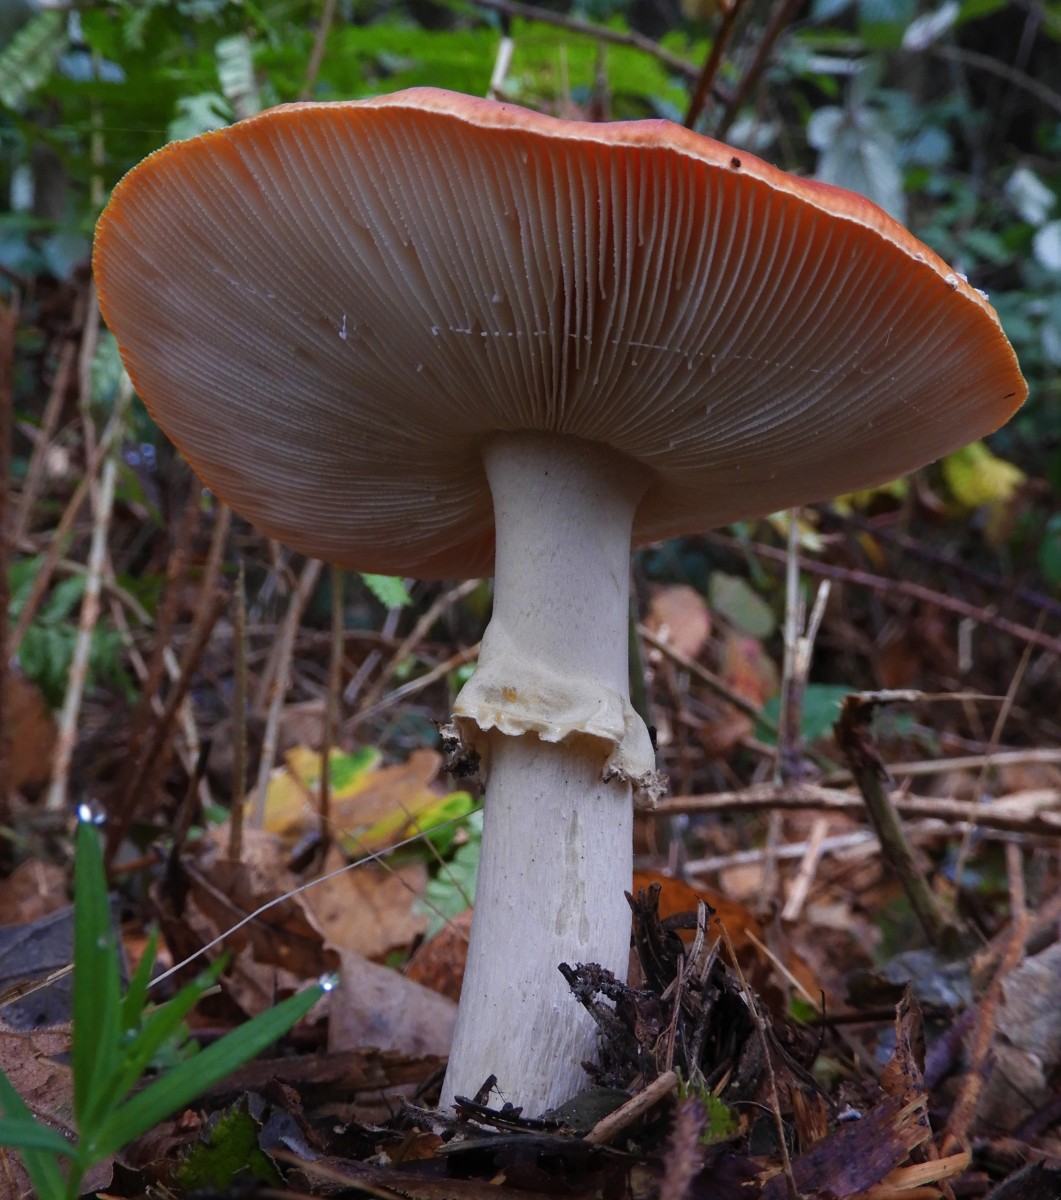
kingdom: Fungi
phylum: Basidiomycota
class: Agaricomycetes
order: Agaricales
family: Amanitaceae
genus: Amanita
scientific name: Amanita muscaria
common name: rød fluesvamp
